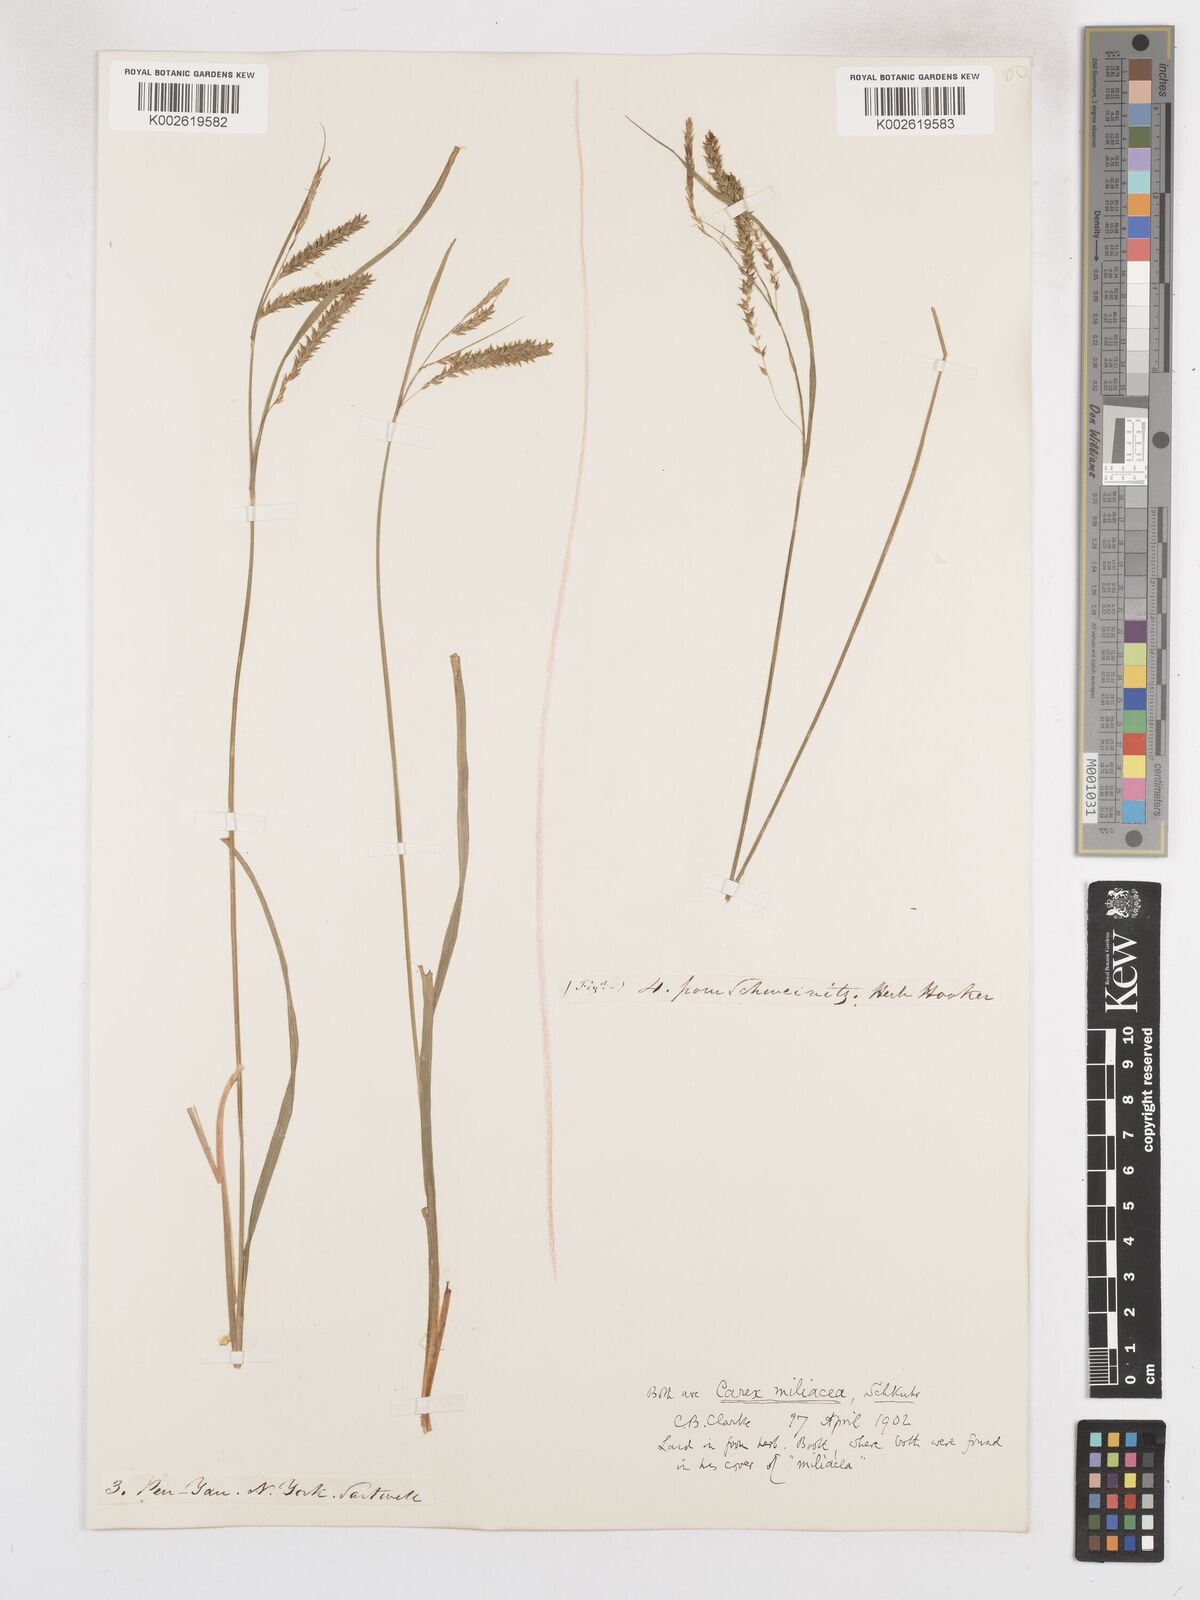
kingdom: Plantae
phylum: Tracheophyta
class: Liliopsida
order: Poales
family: Cyperaceae
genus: Carex
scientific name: Carex prasina
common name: Drooping sedge
